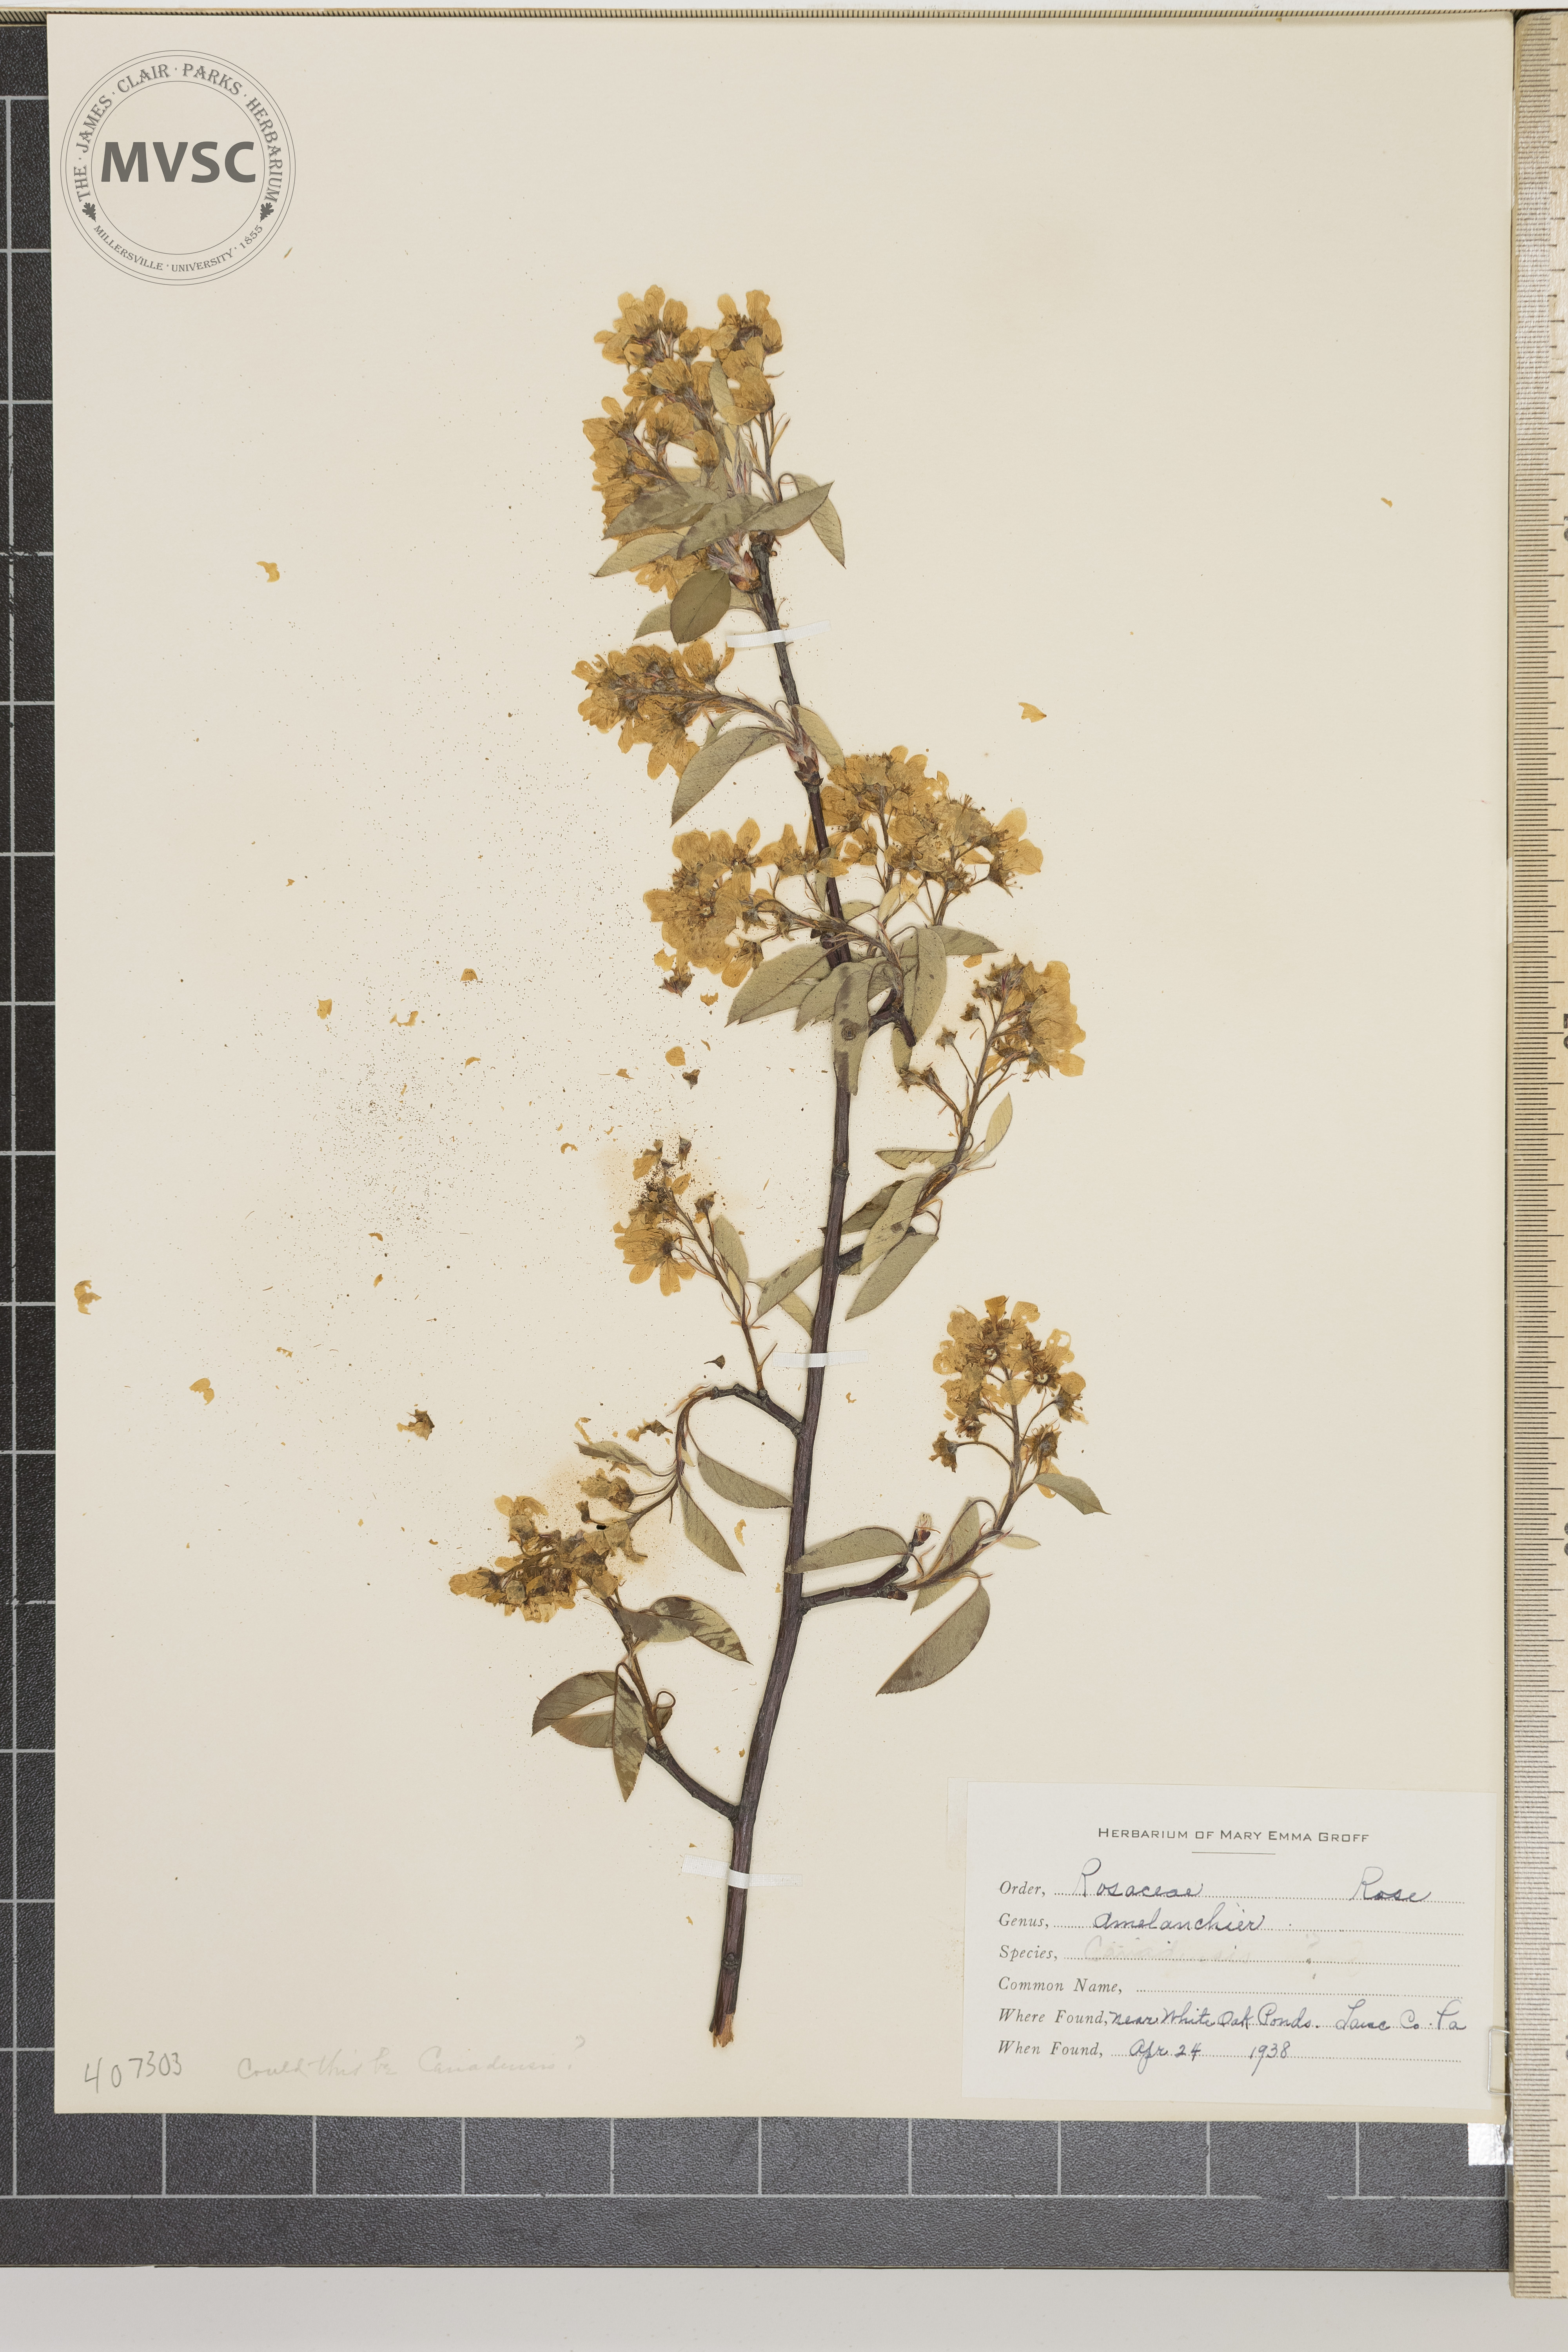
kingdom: Plantae
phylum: Tracheophyta
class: Magnoliopsida
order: Rosales
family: Rosaceae
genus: Amelanchier
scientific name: Amelanchier canadensis
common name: Thicket serviceberry
